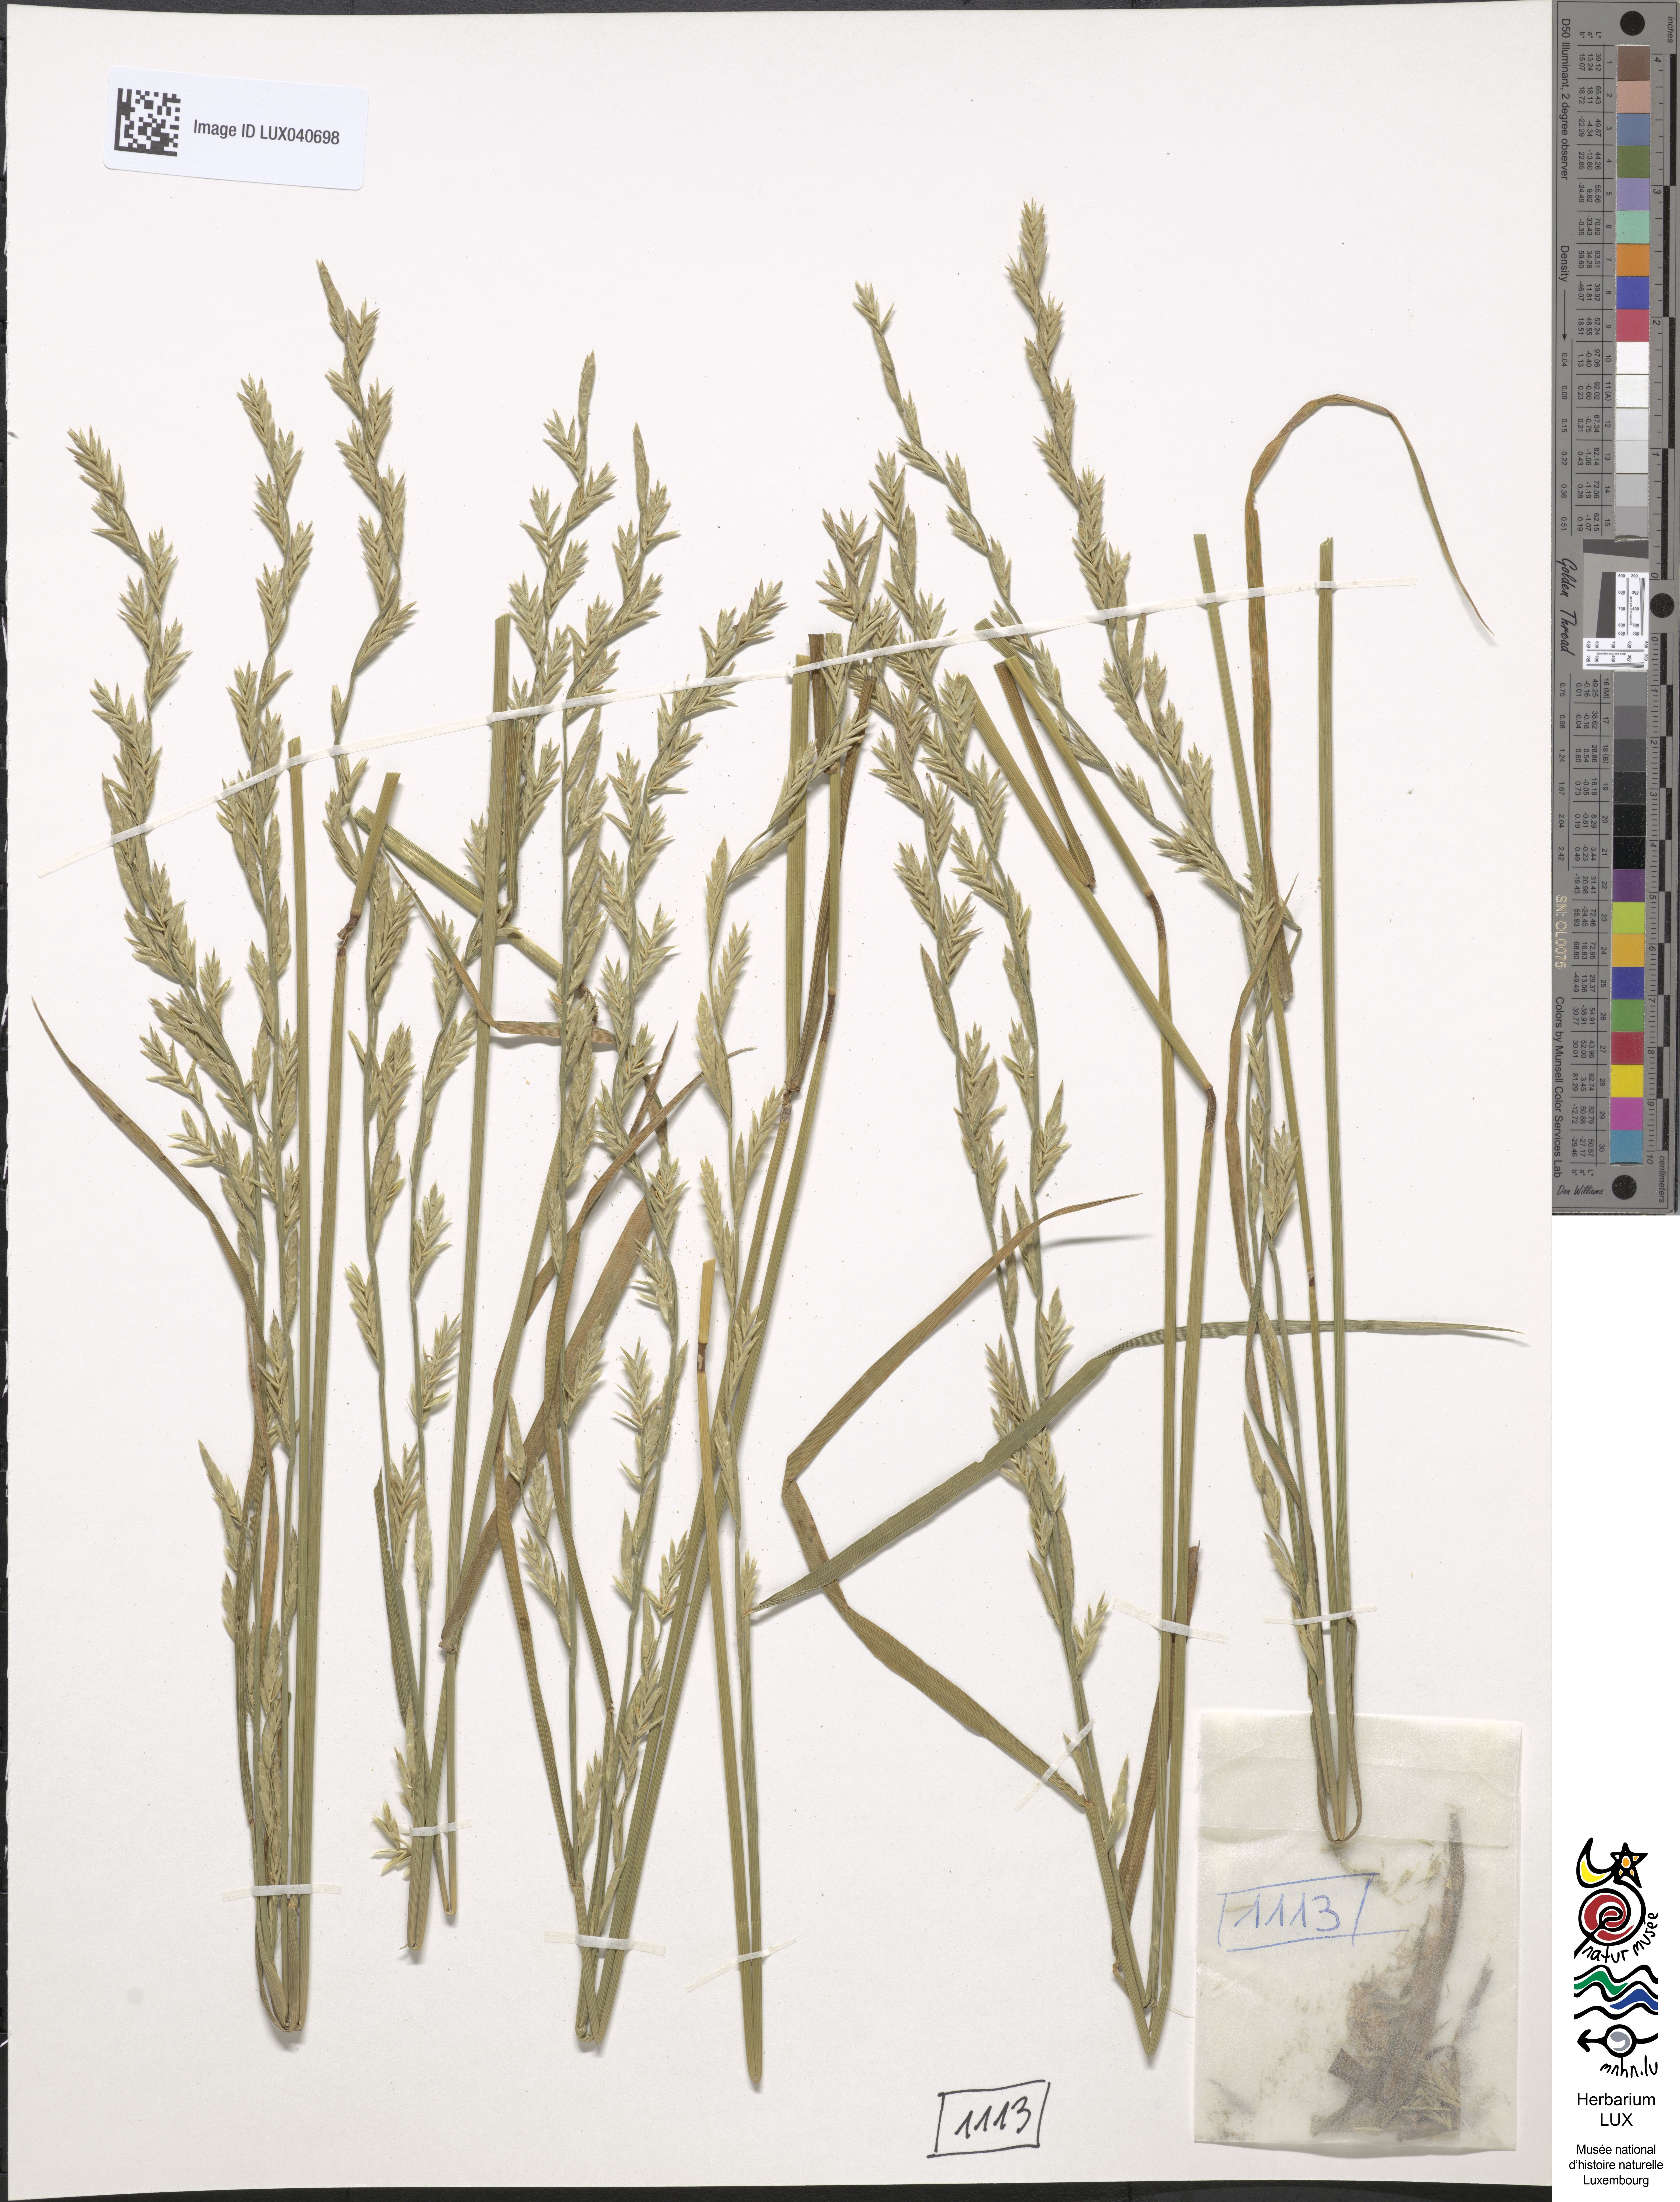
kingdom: Plantae
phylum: Tracheophyta
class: Liliopsida
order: Poales
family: Poaceae
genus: Lolium
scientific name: Lolium elongatum
